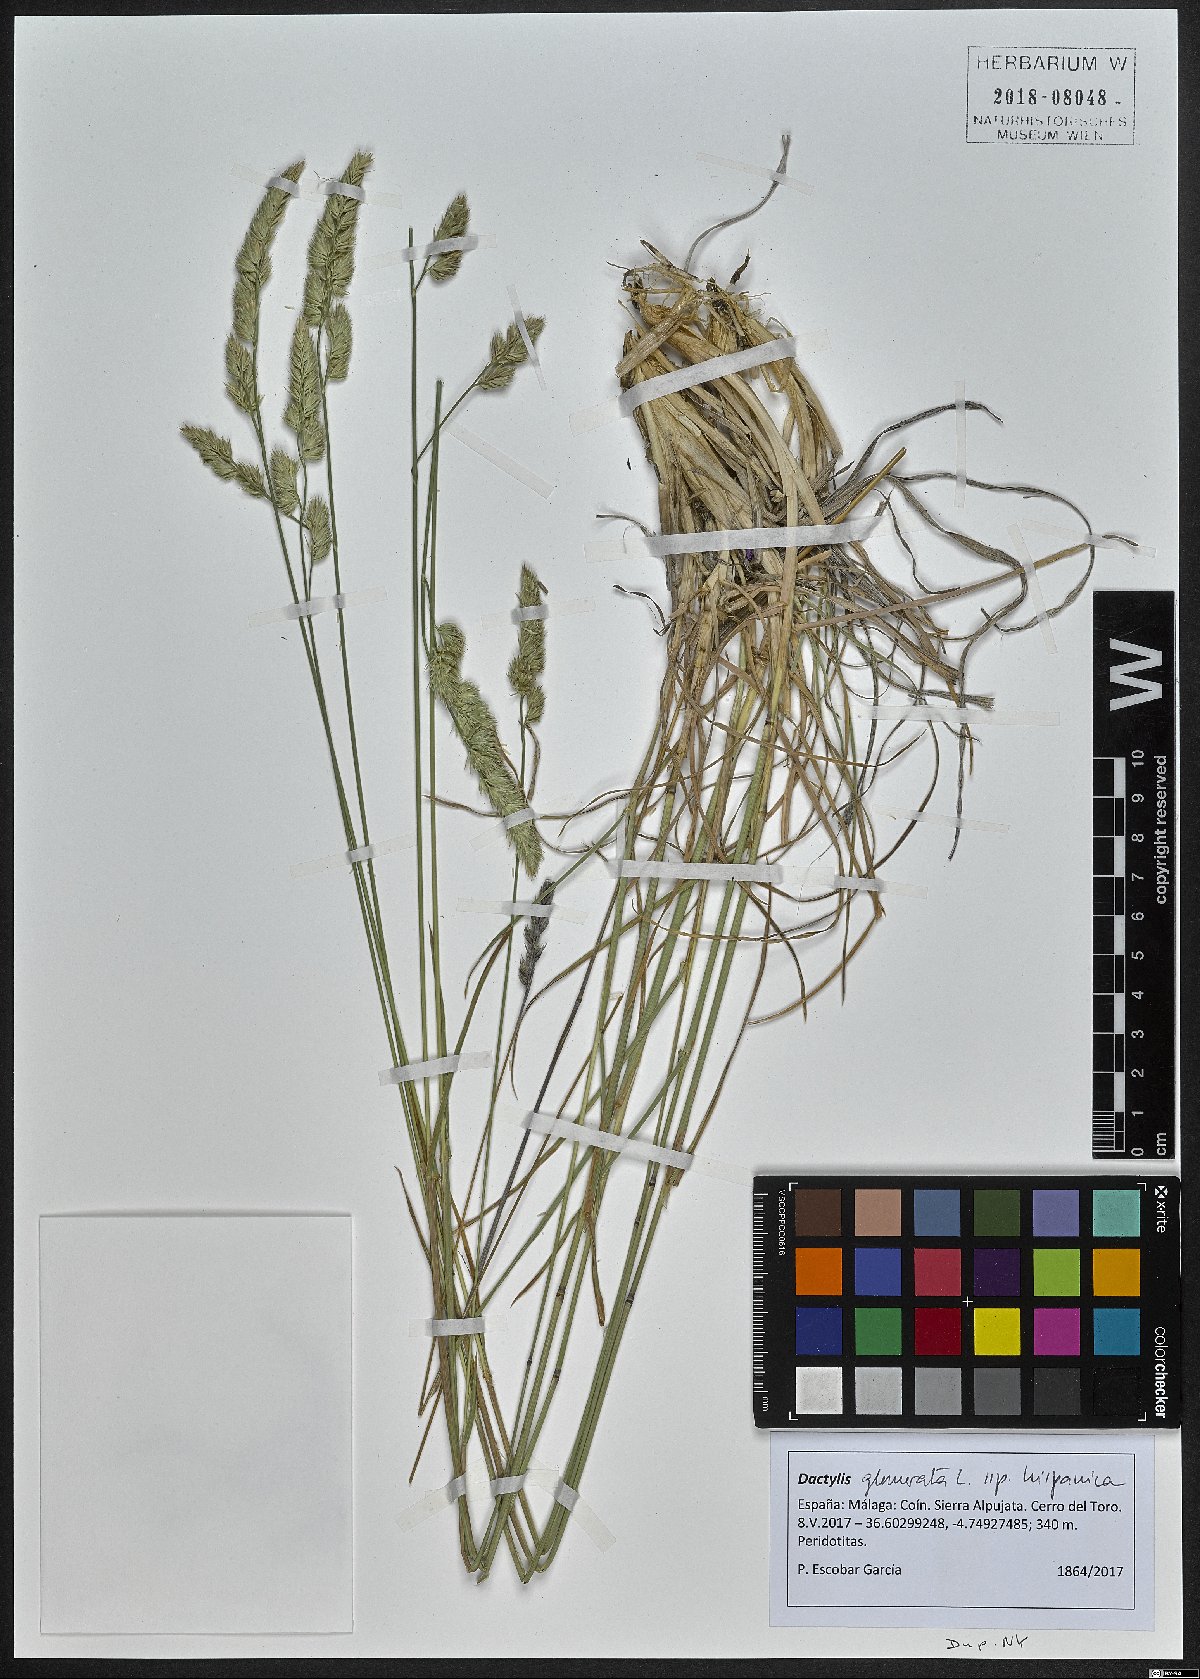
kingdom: Plantae
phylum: Tracheophyta
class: Liliopsida
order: Poales
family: Poaceae
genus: Dactylis
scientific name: Dactylis glomerata
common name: Orchardgrass
